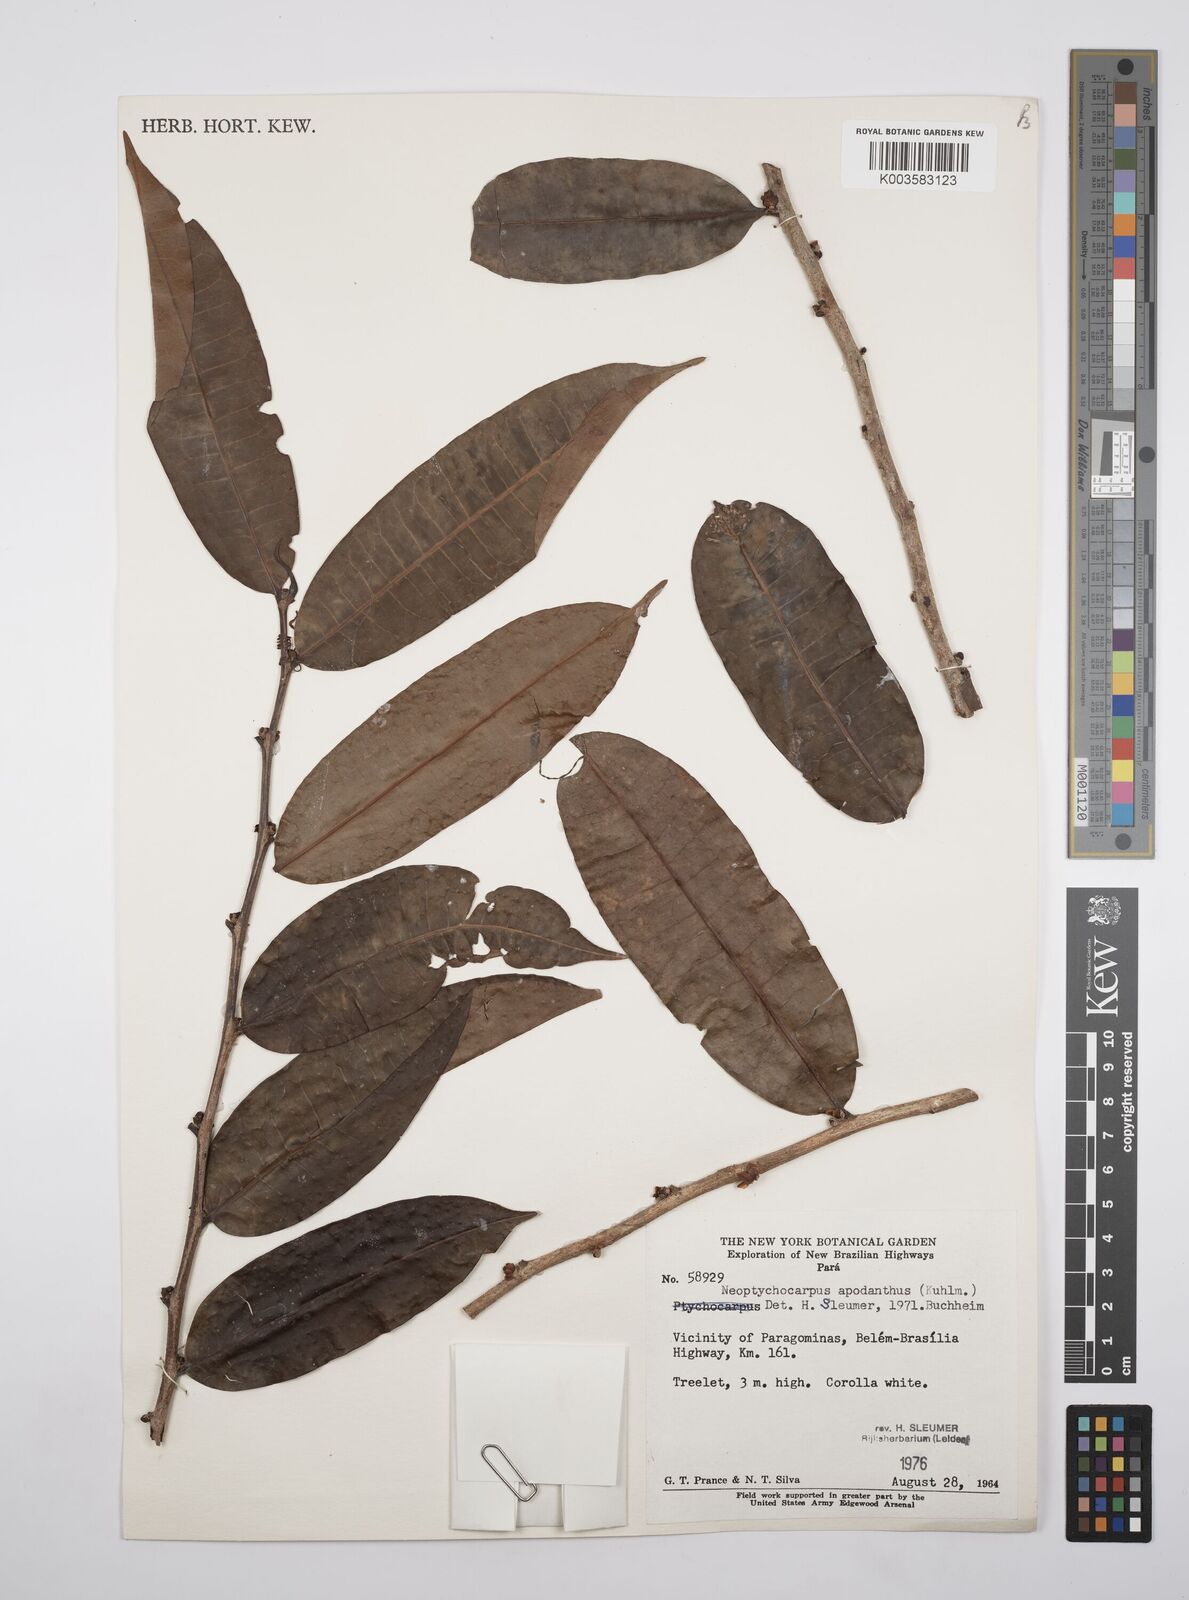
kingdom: Plantae
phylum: Tracheophyta
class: Magnoliopsida
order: Malpighiales
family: Salicaceae
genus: Casearia
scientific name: Casearia apodantha
